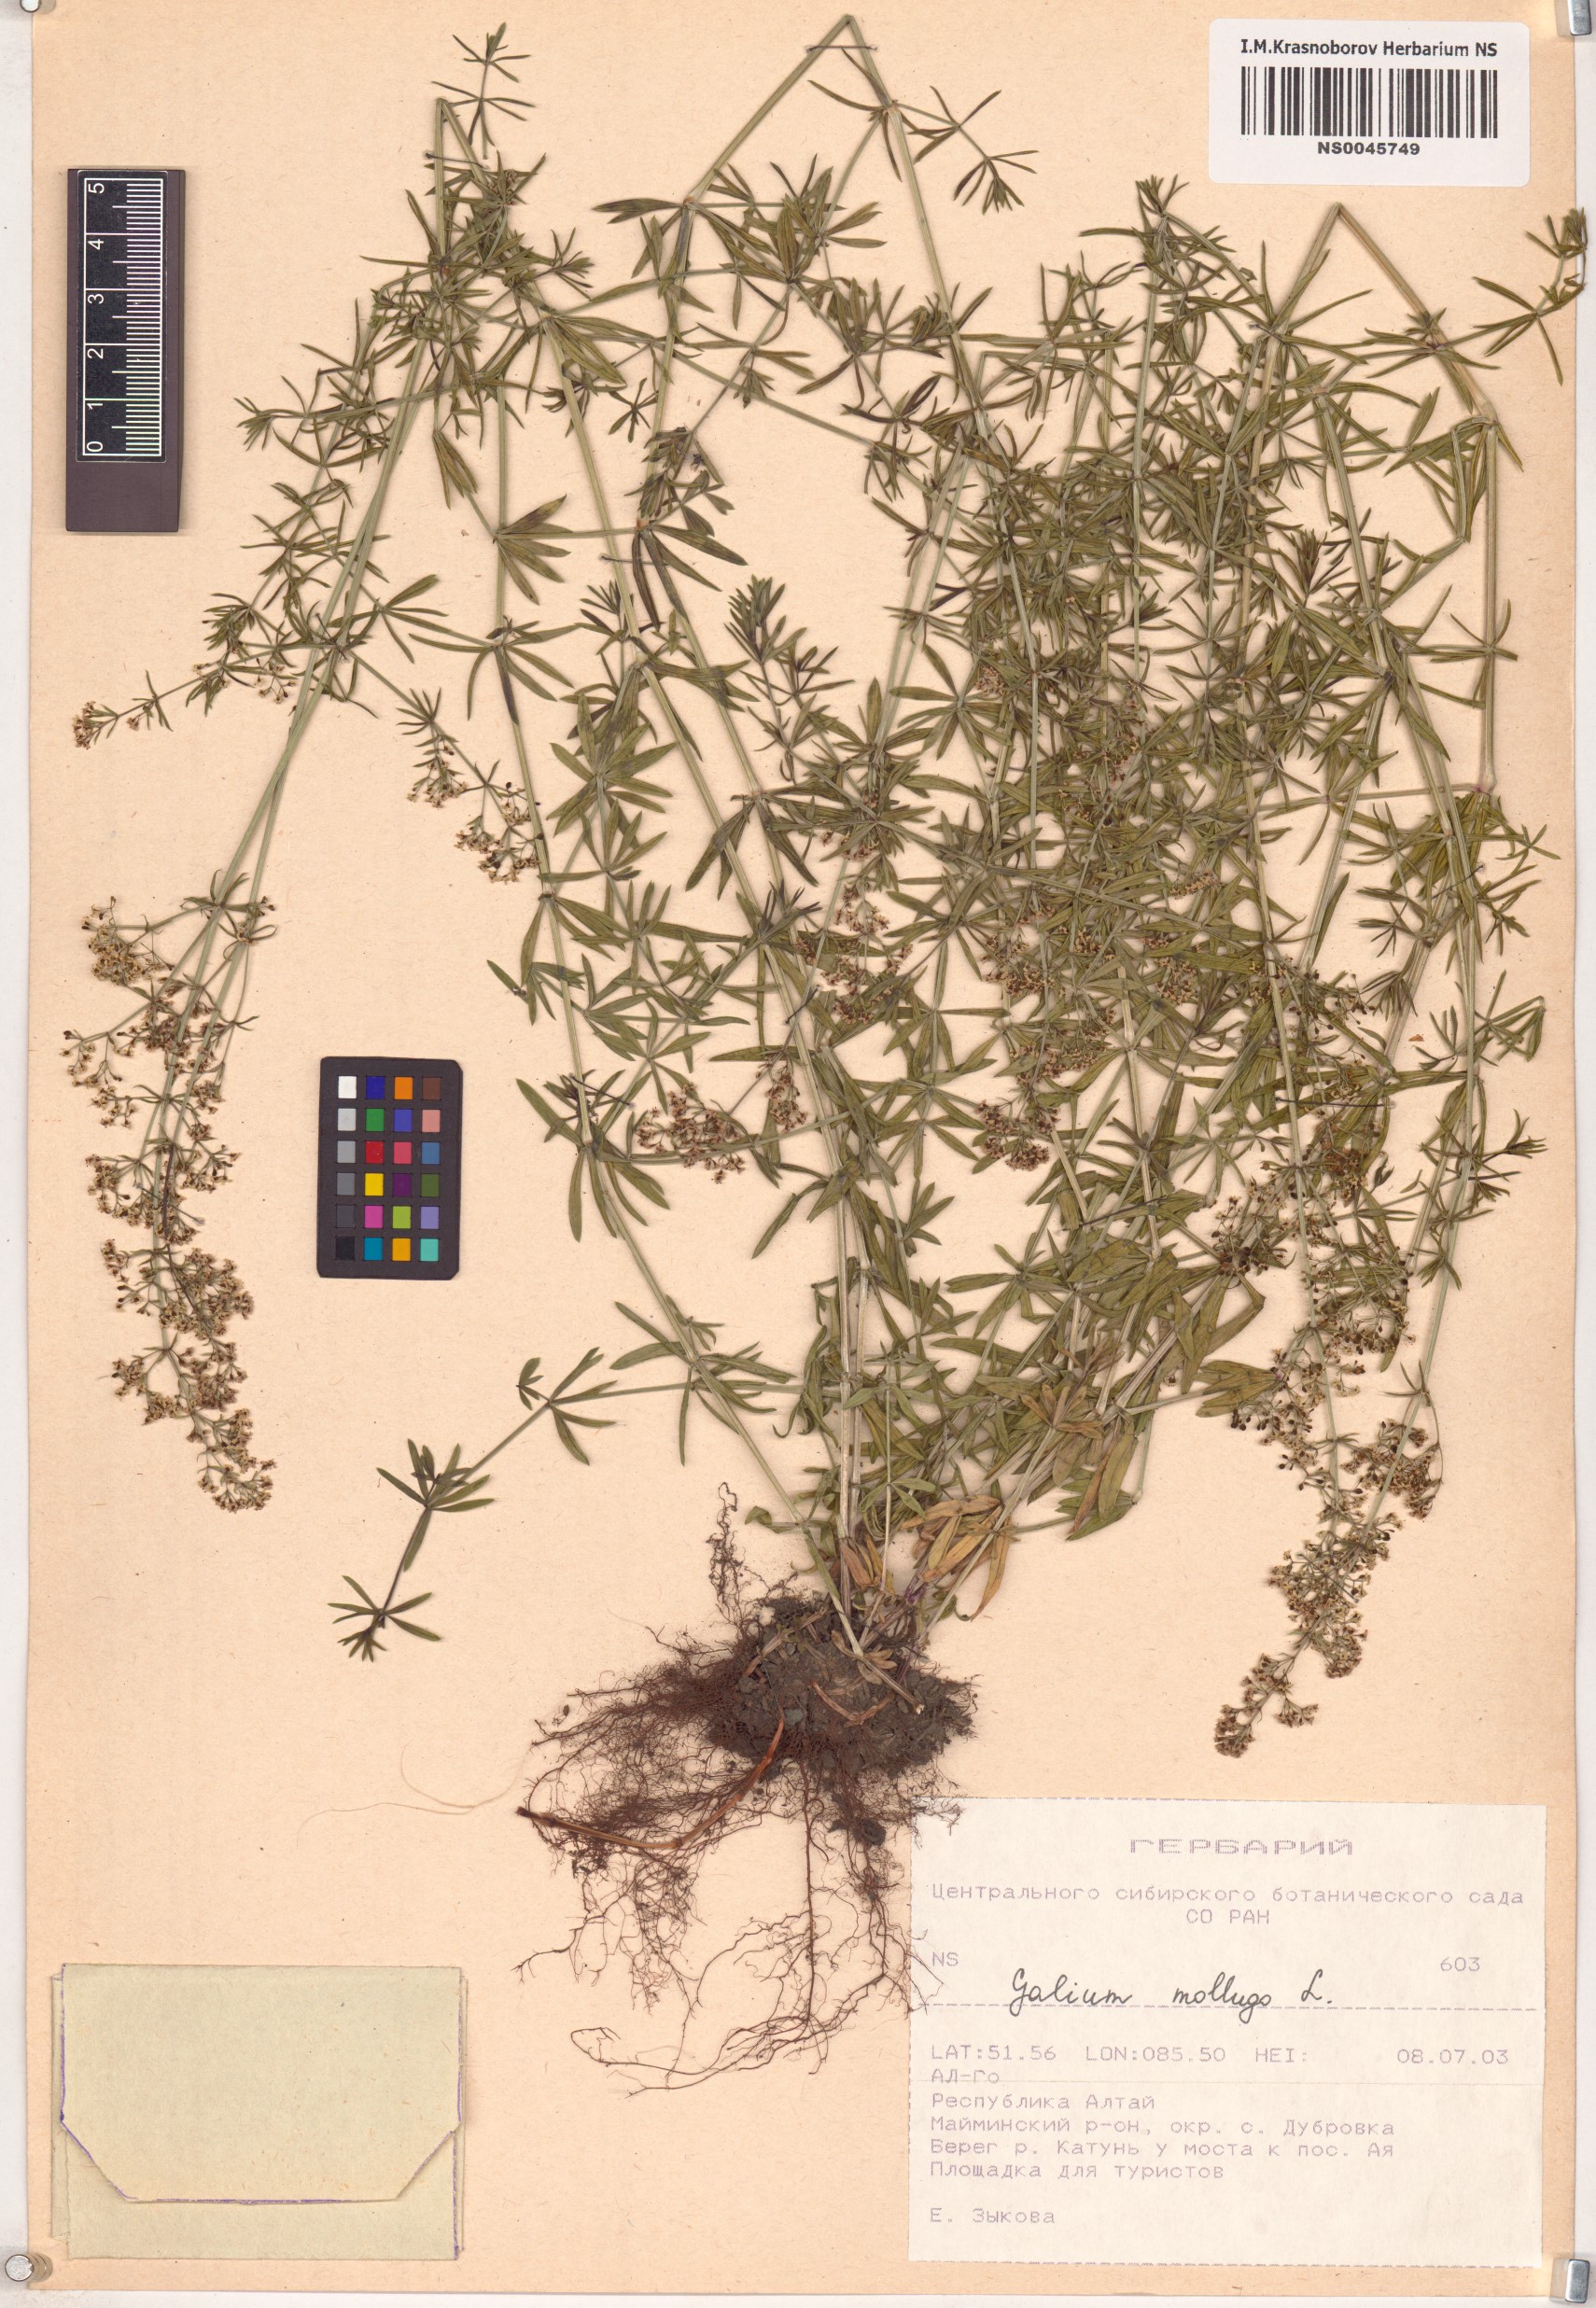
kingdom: Plantae
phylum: Tracheophyta
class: Magnoliopsida
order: Gentianales
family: Rubiaceae
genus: Galium
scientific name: Galium mollugo
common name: Hedge bedstraw
